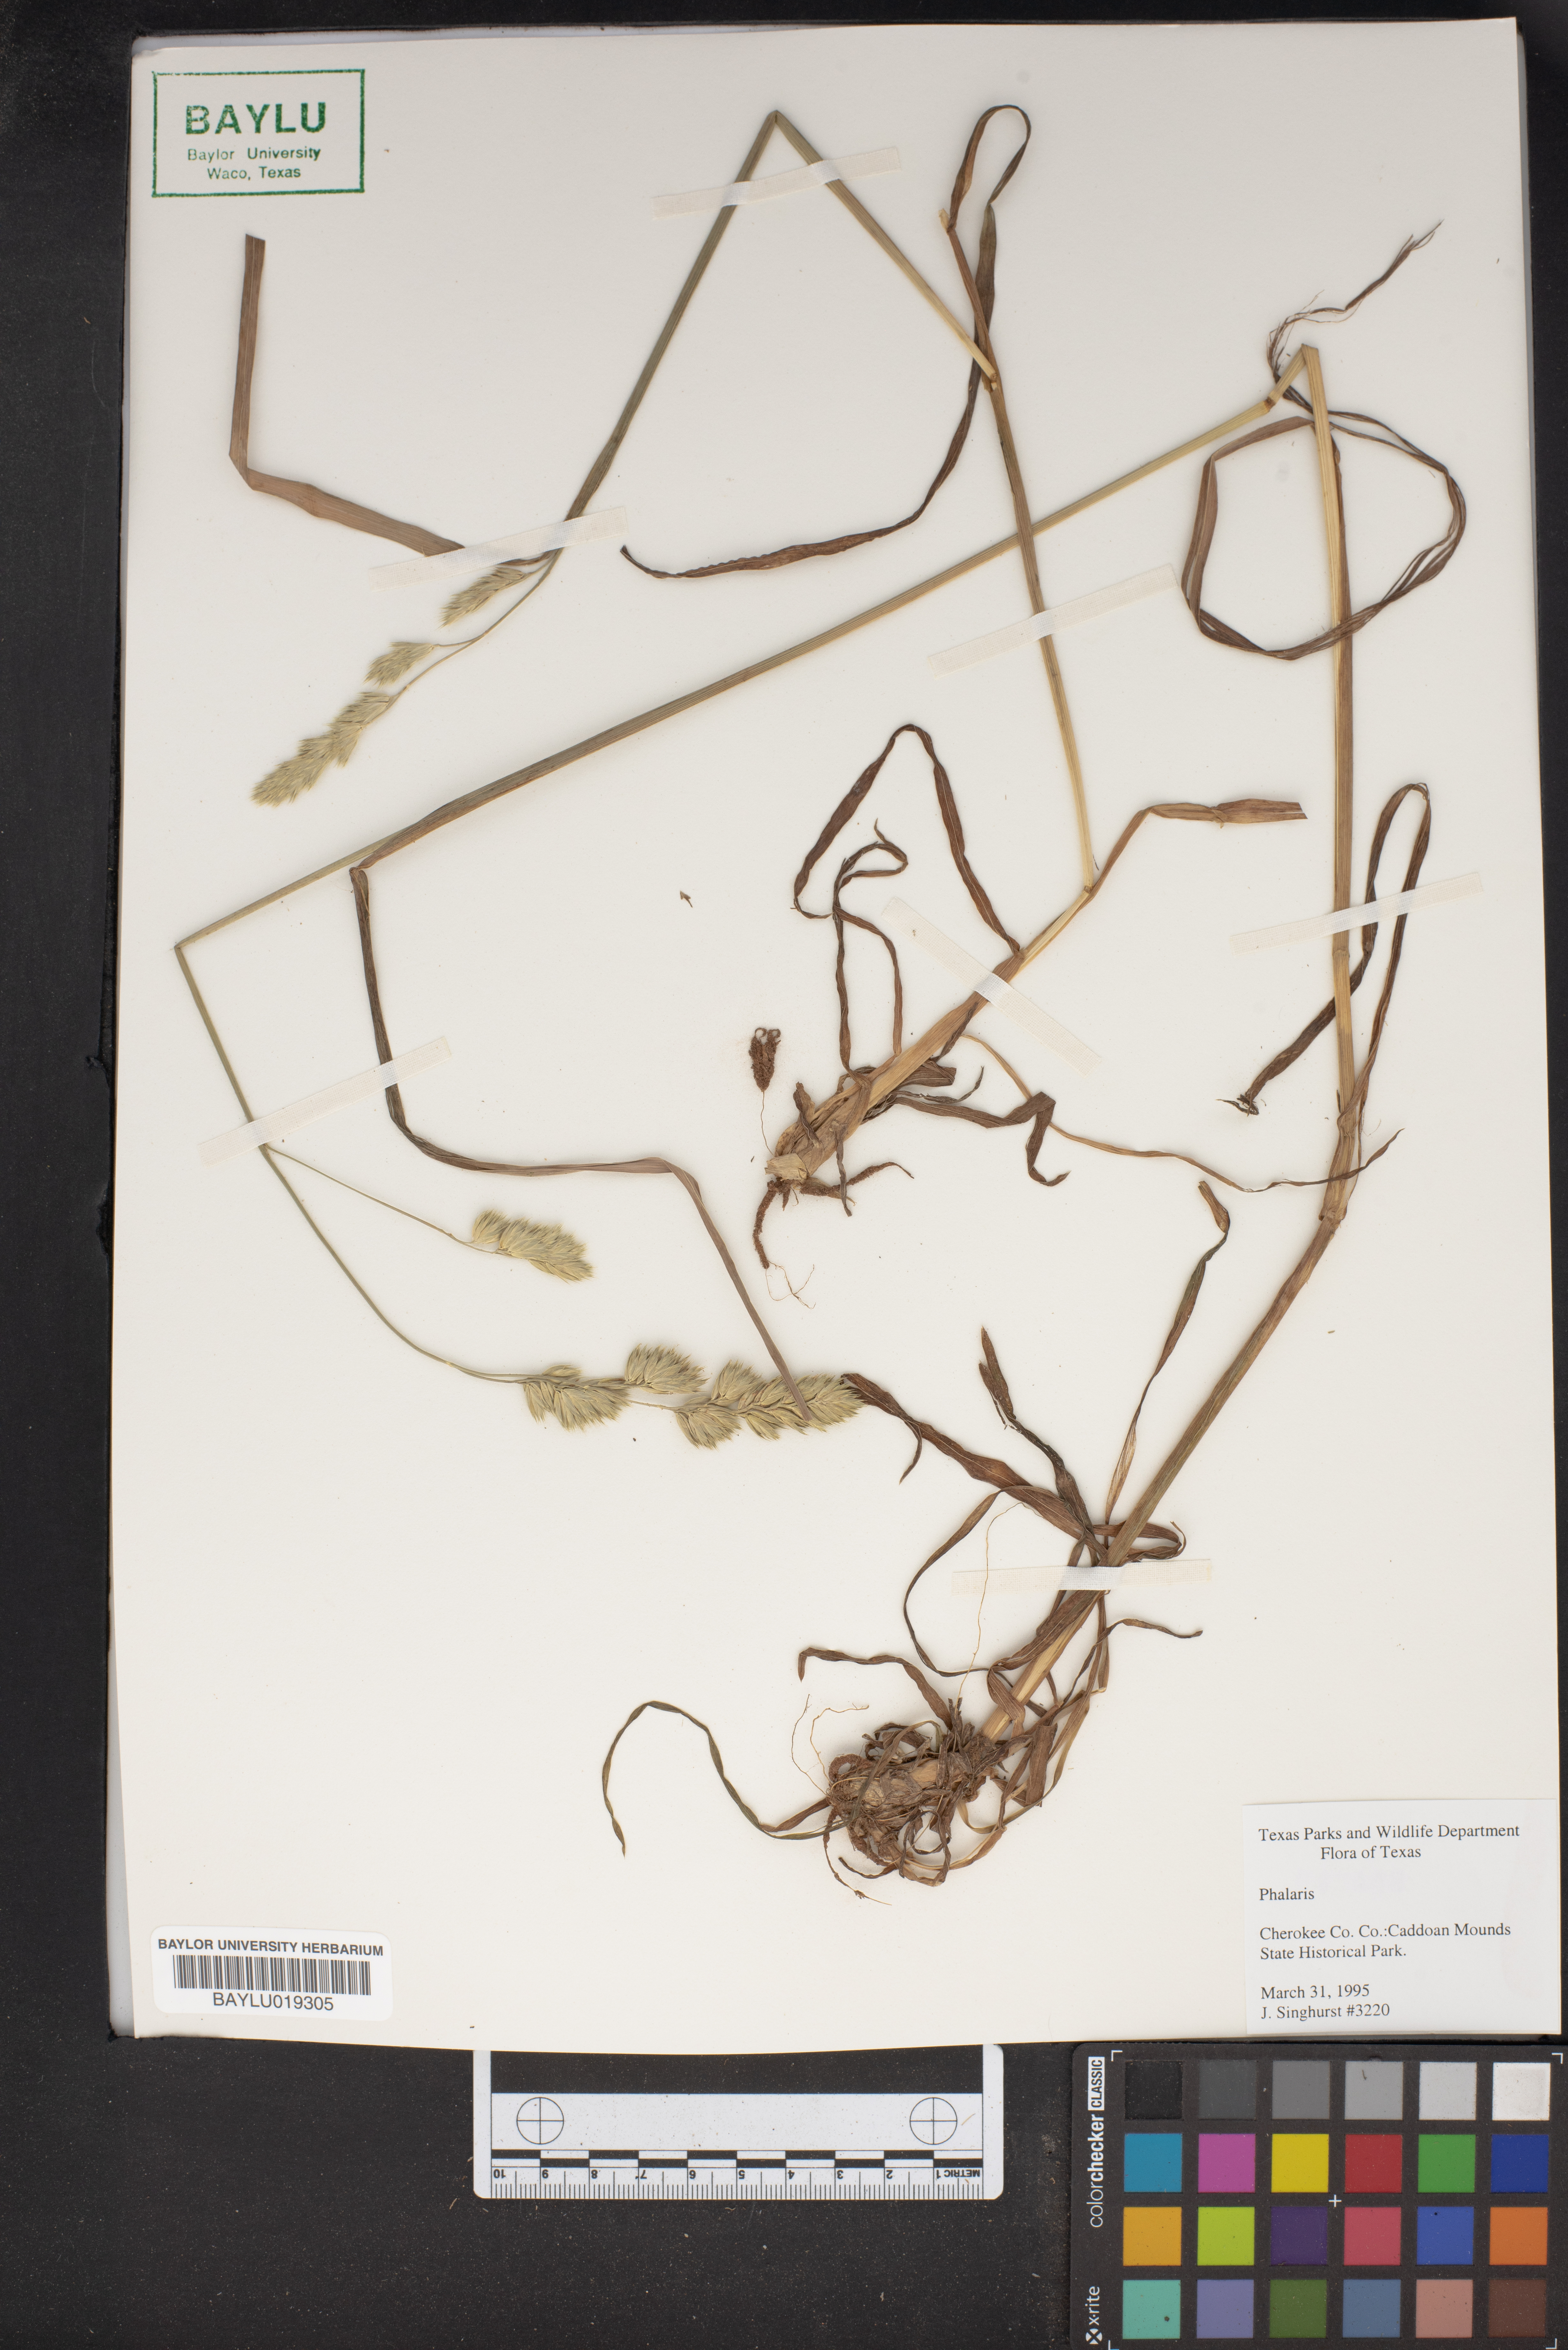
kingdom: Plantae
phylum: Tracheophyta
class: Liliopsida
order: Poales
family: Poaceae
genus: Phalaris
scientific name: Phalaris
